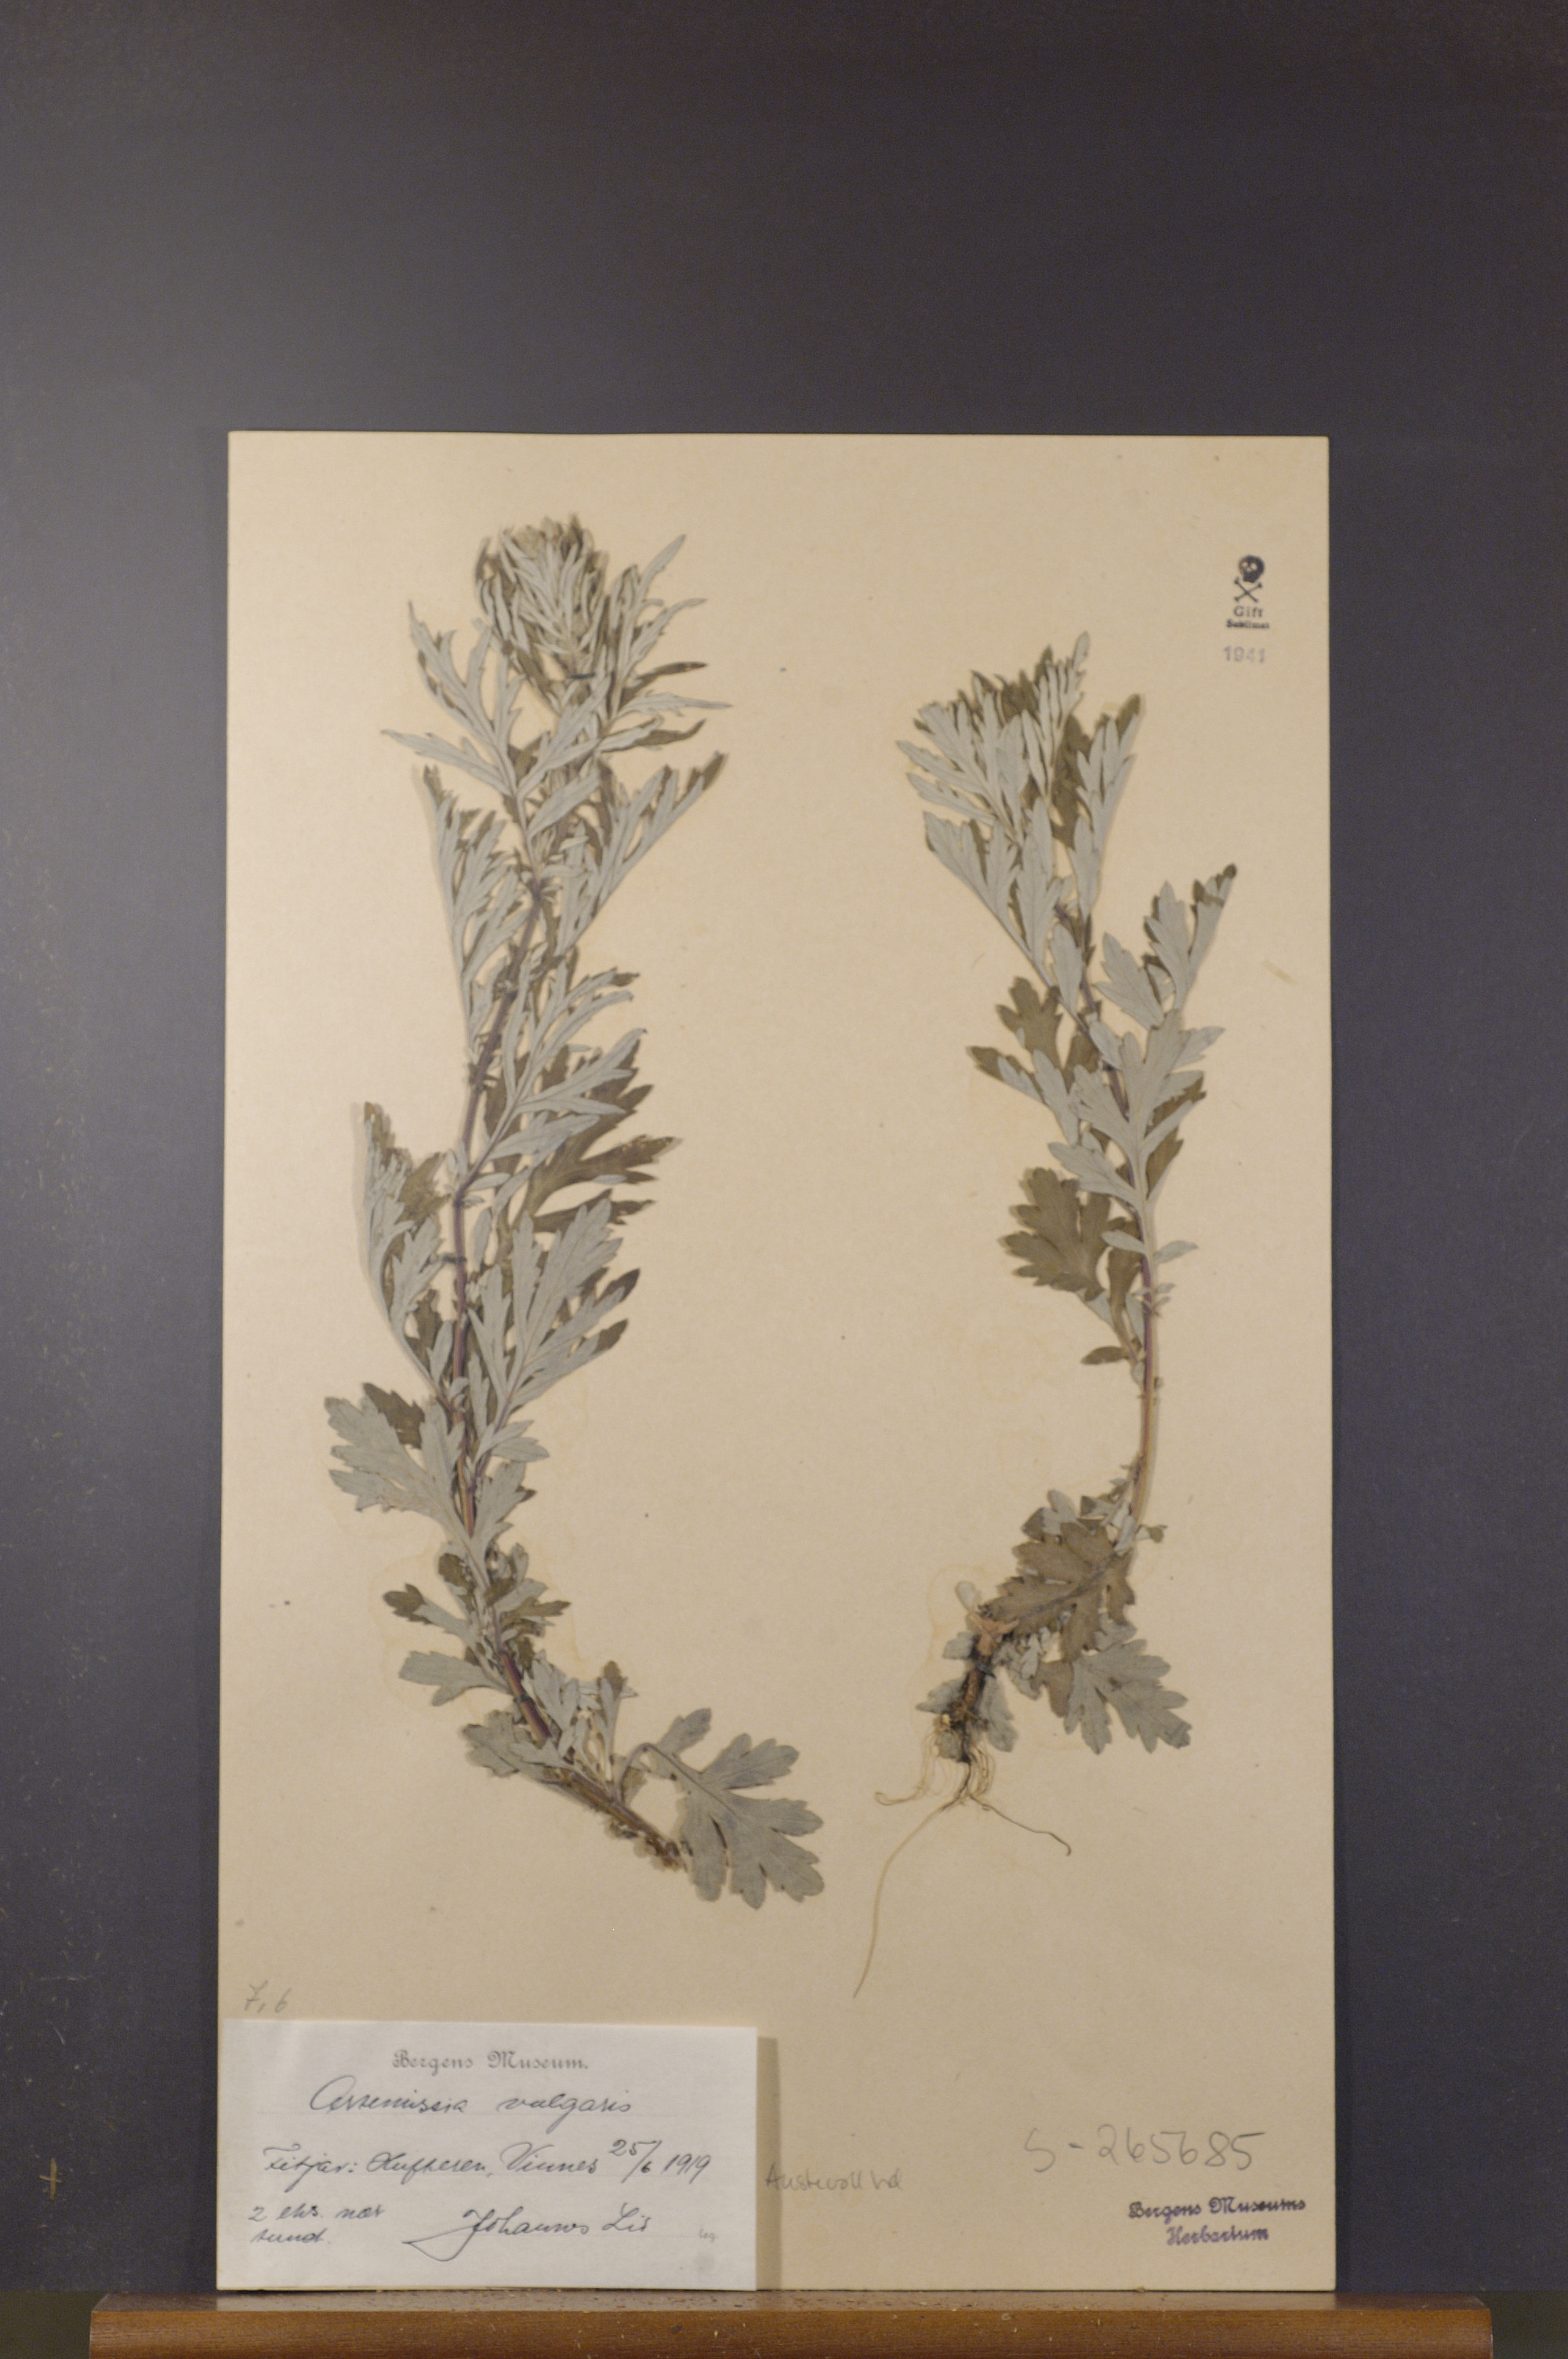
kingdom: Plantae
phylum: Tracheophyta
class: Magnoliopsida
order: Asterales
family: Asteraceae
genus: Artemisia
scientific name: Artemisia vulgaris
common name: Mugwort
